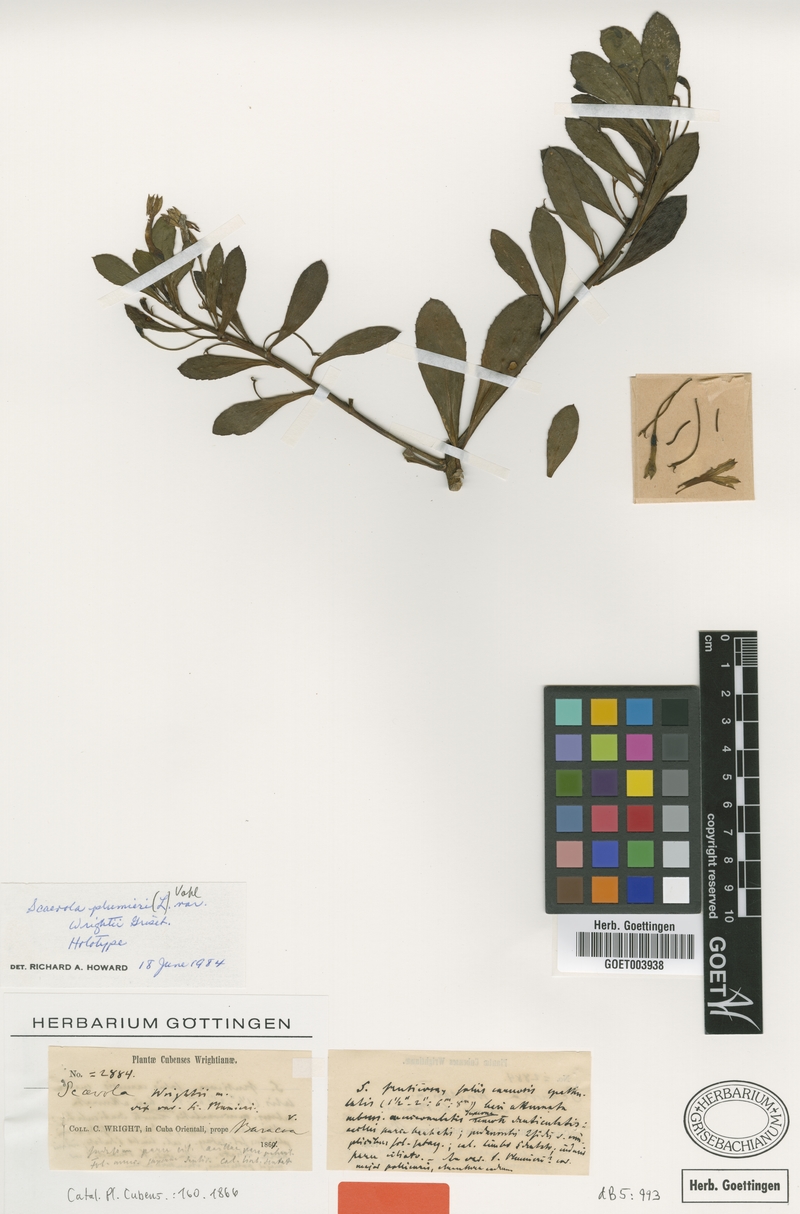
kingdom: Plantae
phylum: Tracheophyta
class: Magnoliopsida
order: Asterales
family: Goodeniaceae
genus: Scaevola
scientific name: Scaevola plumieri
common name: Gull feed
